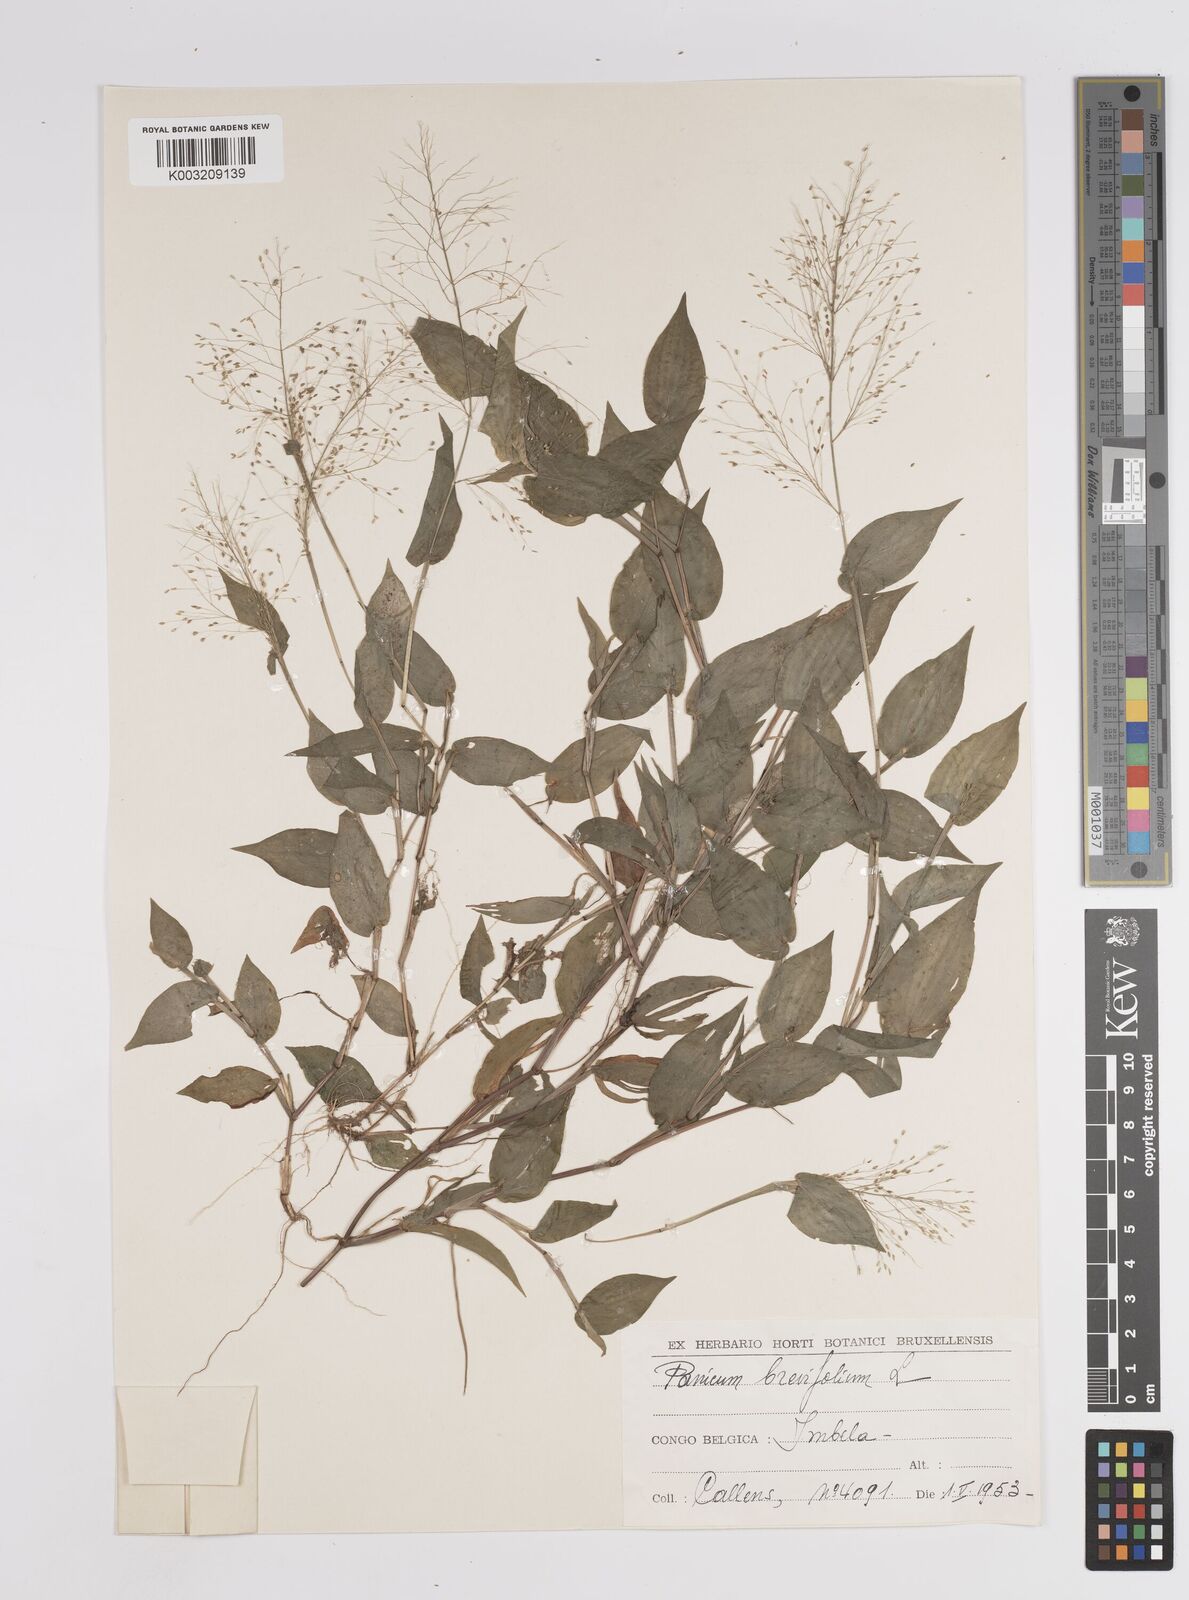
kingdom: Plantae
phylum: Tracheophyta
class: Liliopsida
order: Poales
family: Poaceae
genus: Panicum
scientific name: Panicum brevifolium
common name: Shortleaf panic grass
